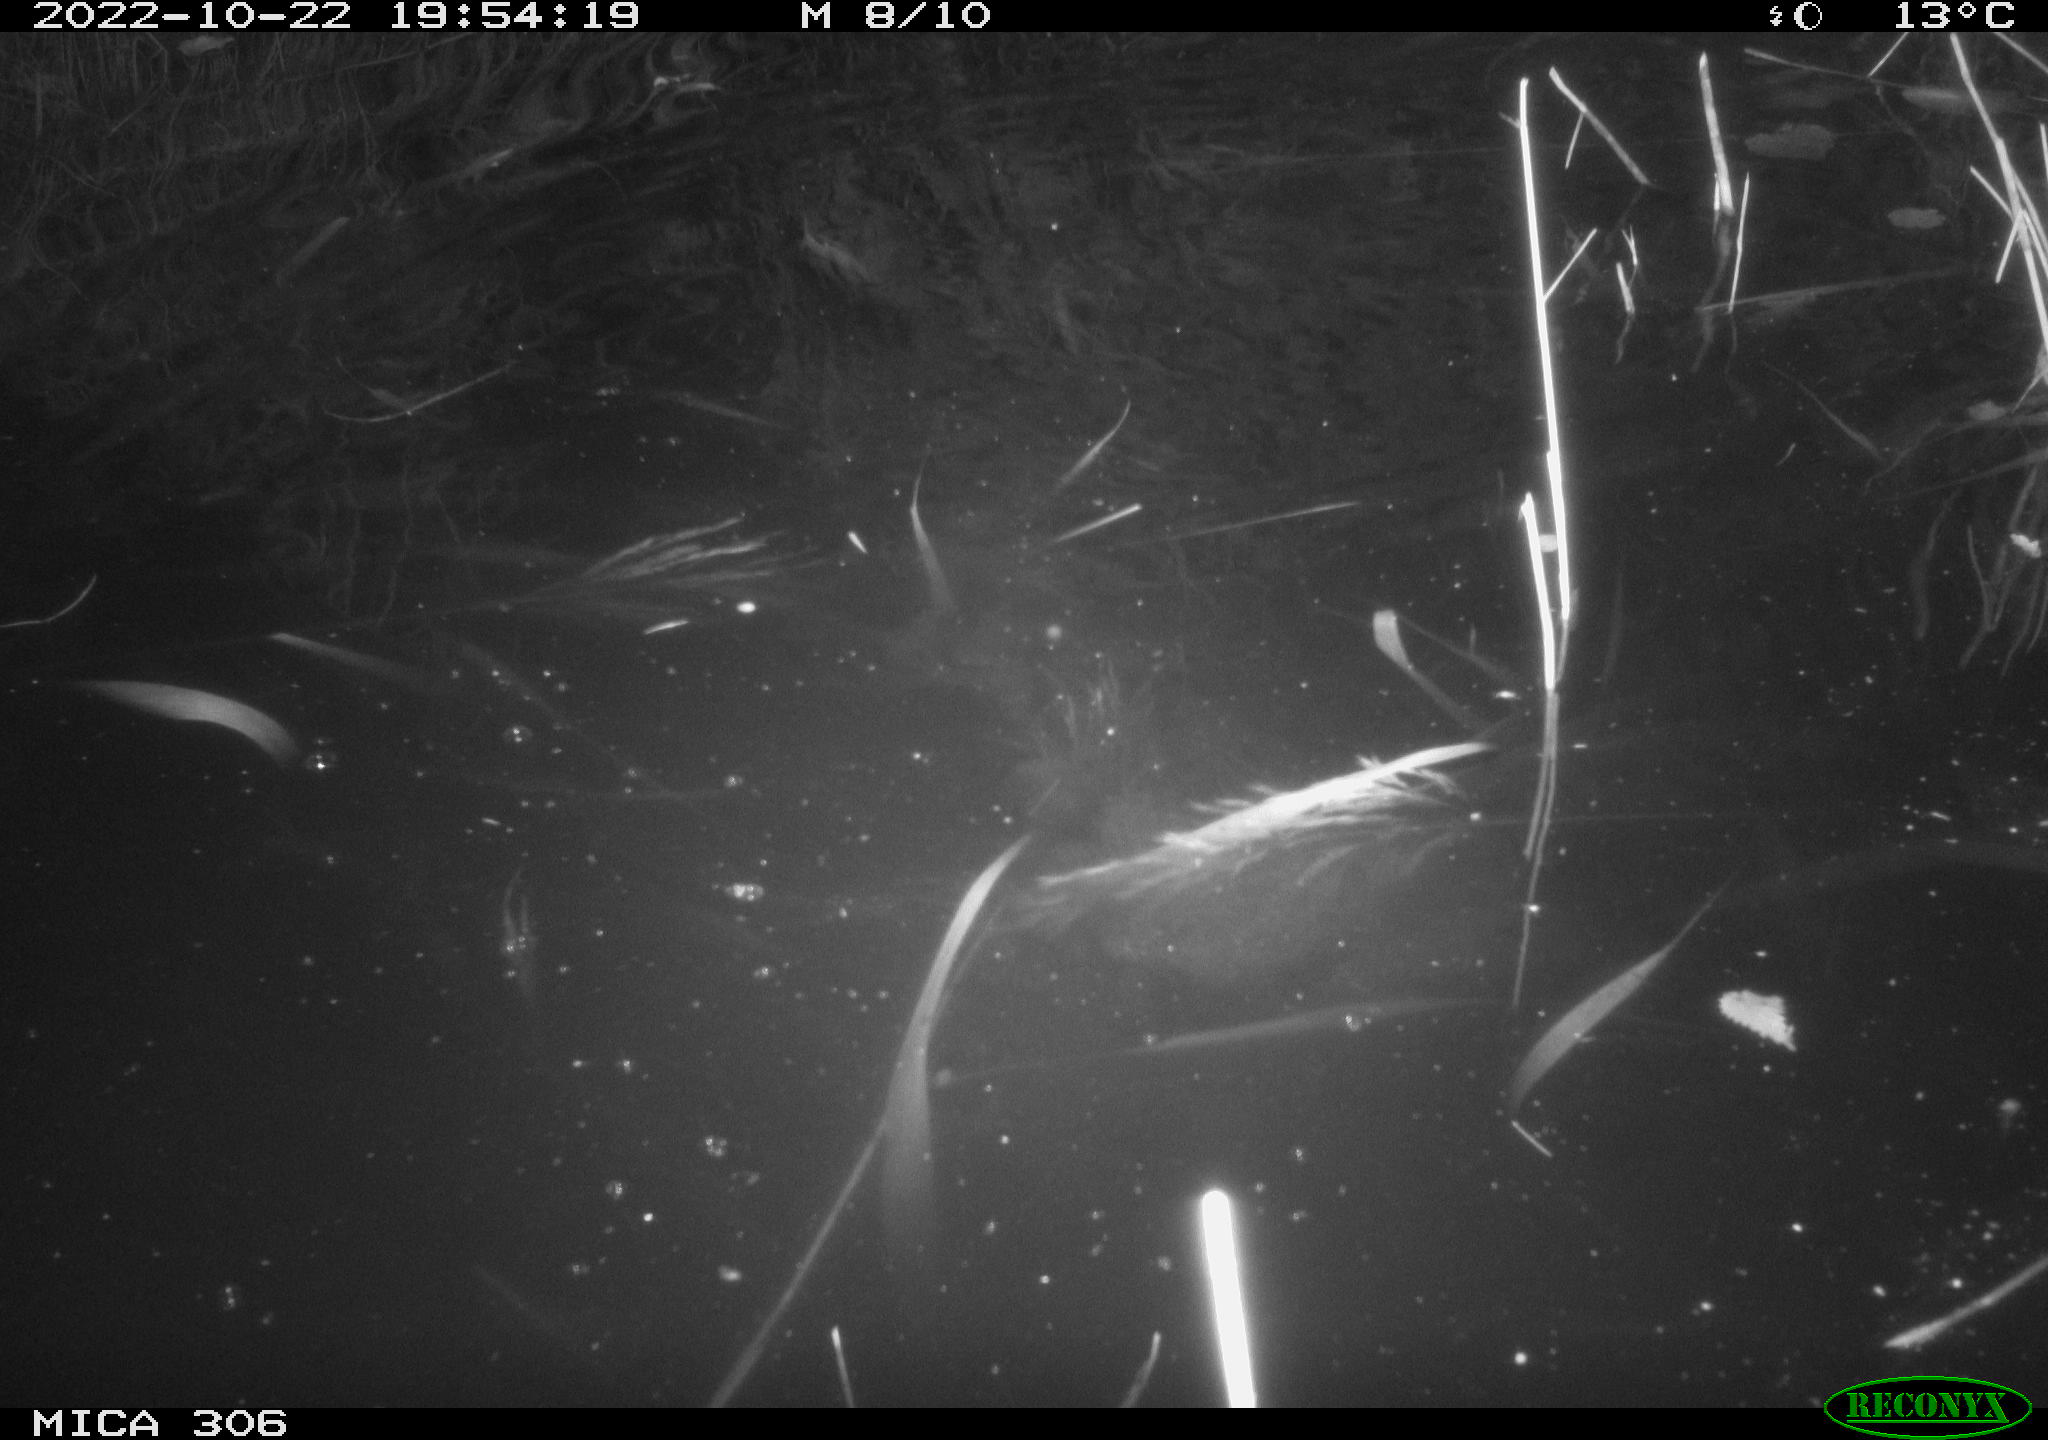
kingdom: Animalia
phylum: Chordata
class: Mammalia
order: Rodentia
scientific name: Rodentia
